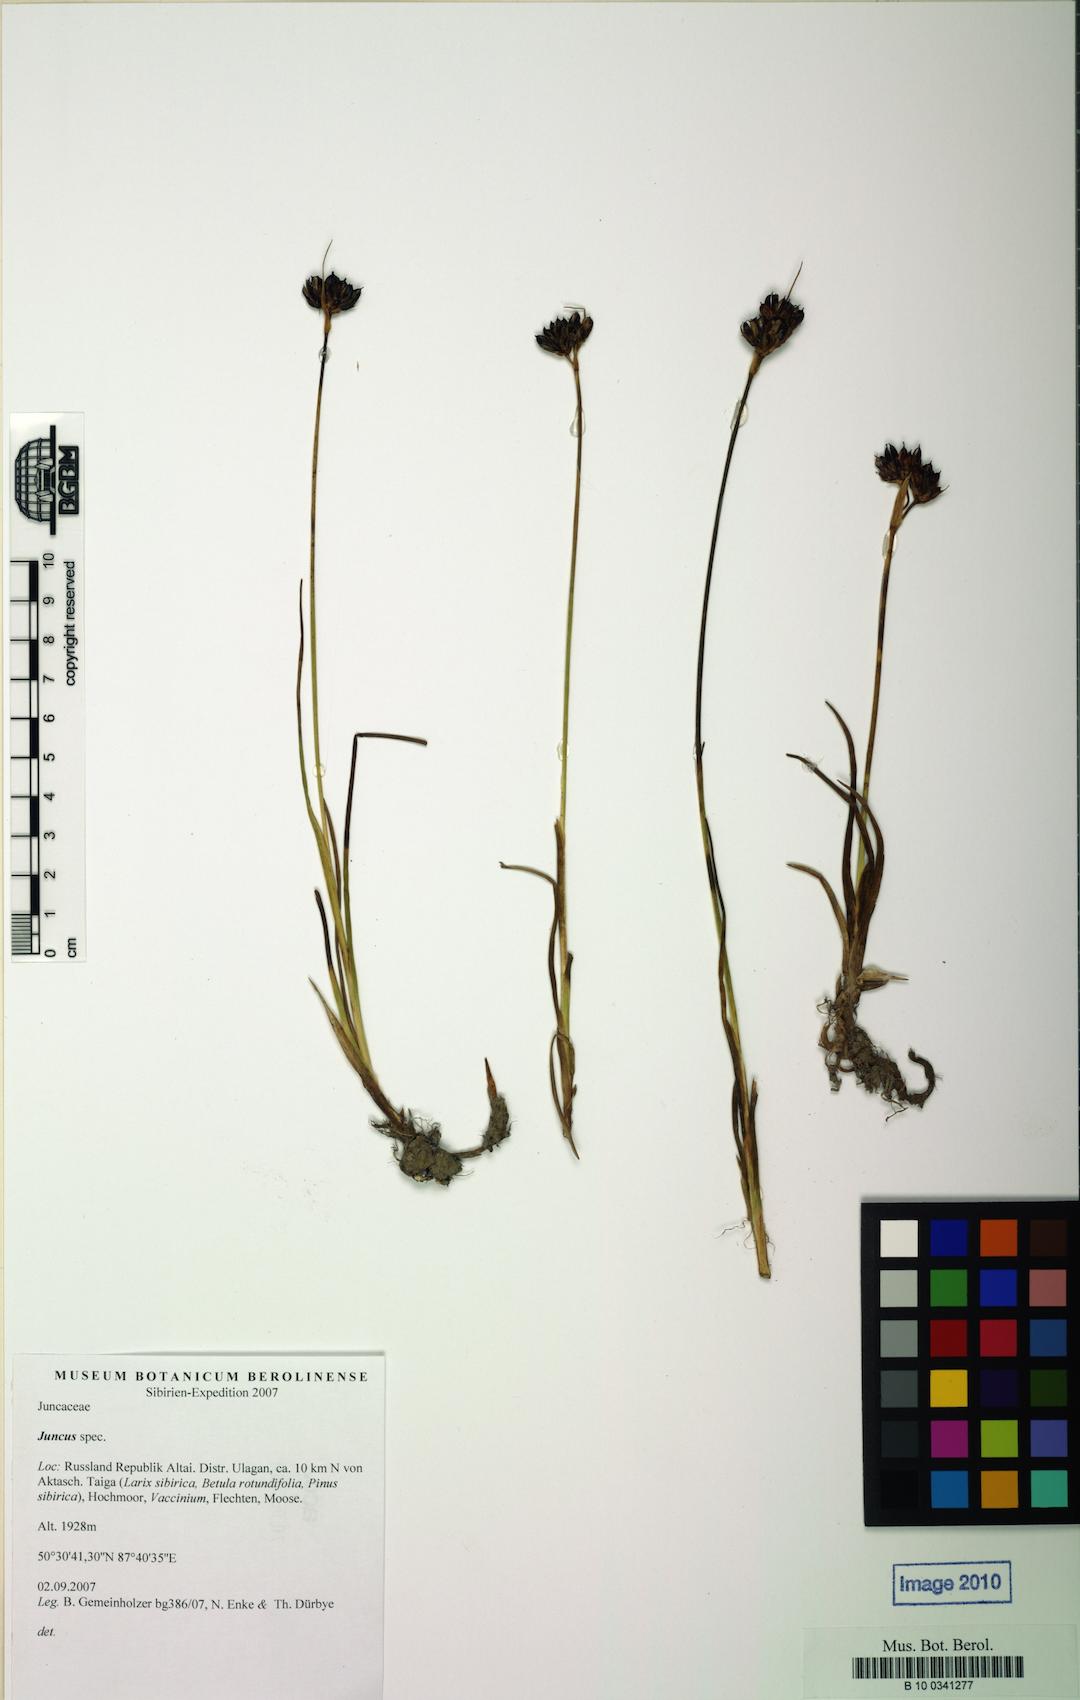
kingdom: Plantae
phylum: Tracheophyta
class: Liliopsida
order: Poales
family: Juncaceae
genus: Juncus
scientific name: Juncus castaneus
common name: Chestnut rush
